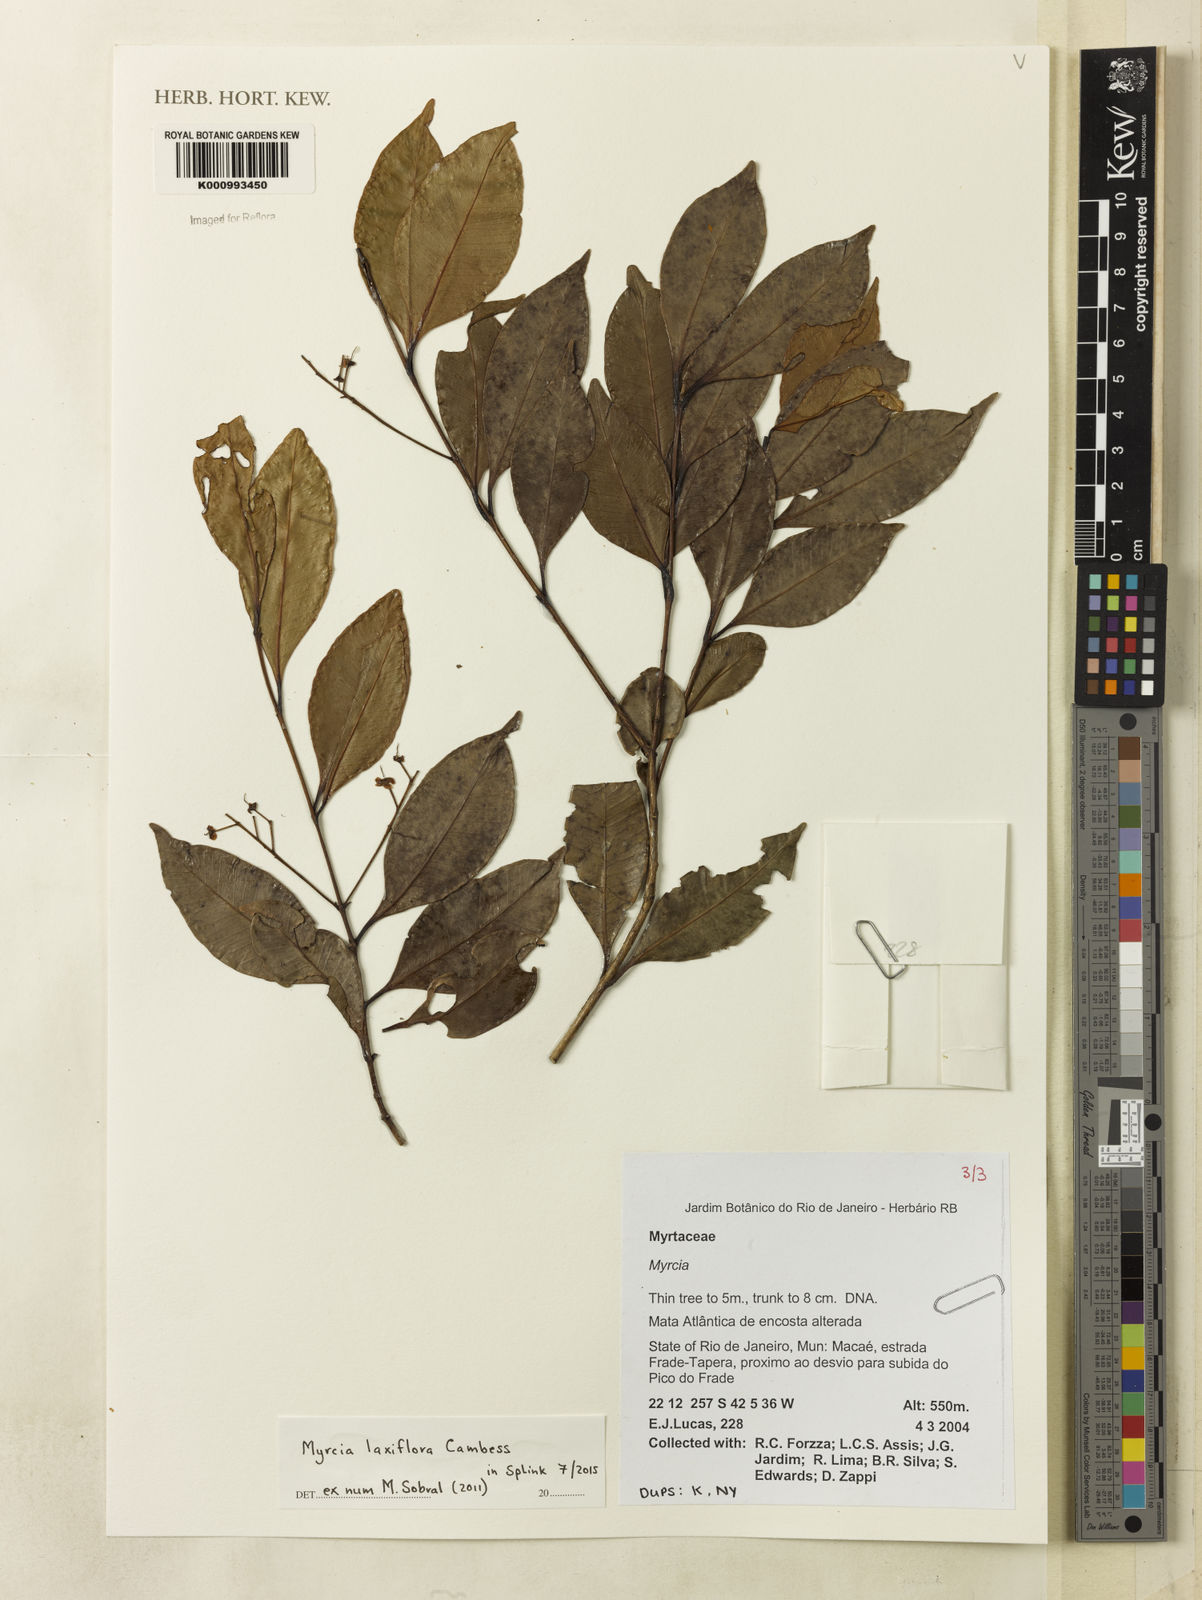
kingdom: Plantae
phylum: Tracheophyta
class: Magnoliopsida
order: Myrtales
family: Myrtaceae
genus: Myrcia
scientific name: Myrcia
